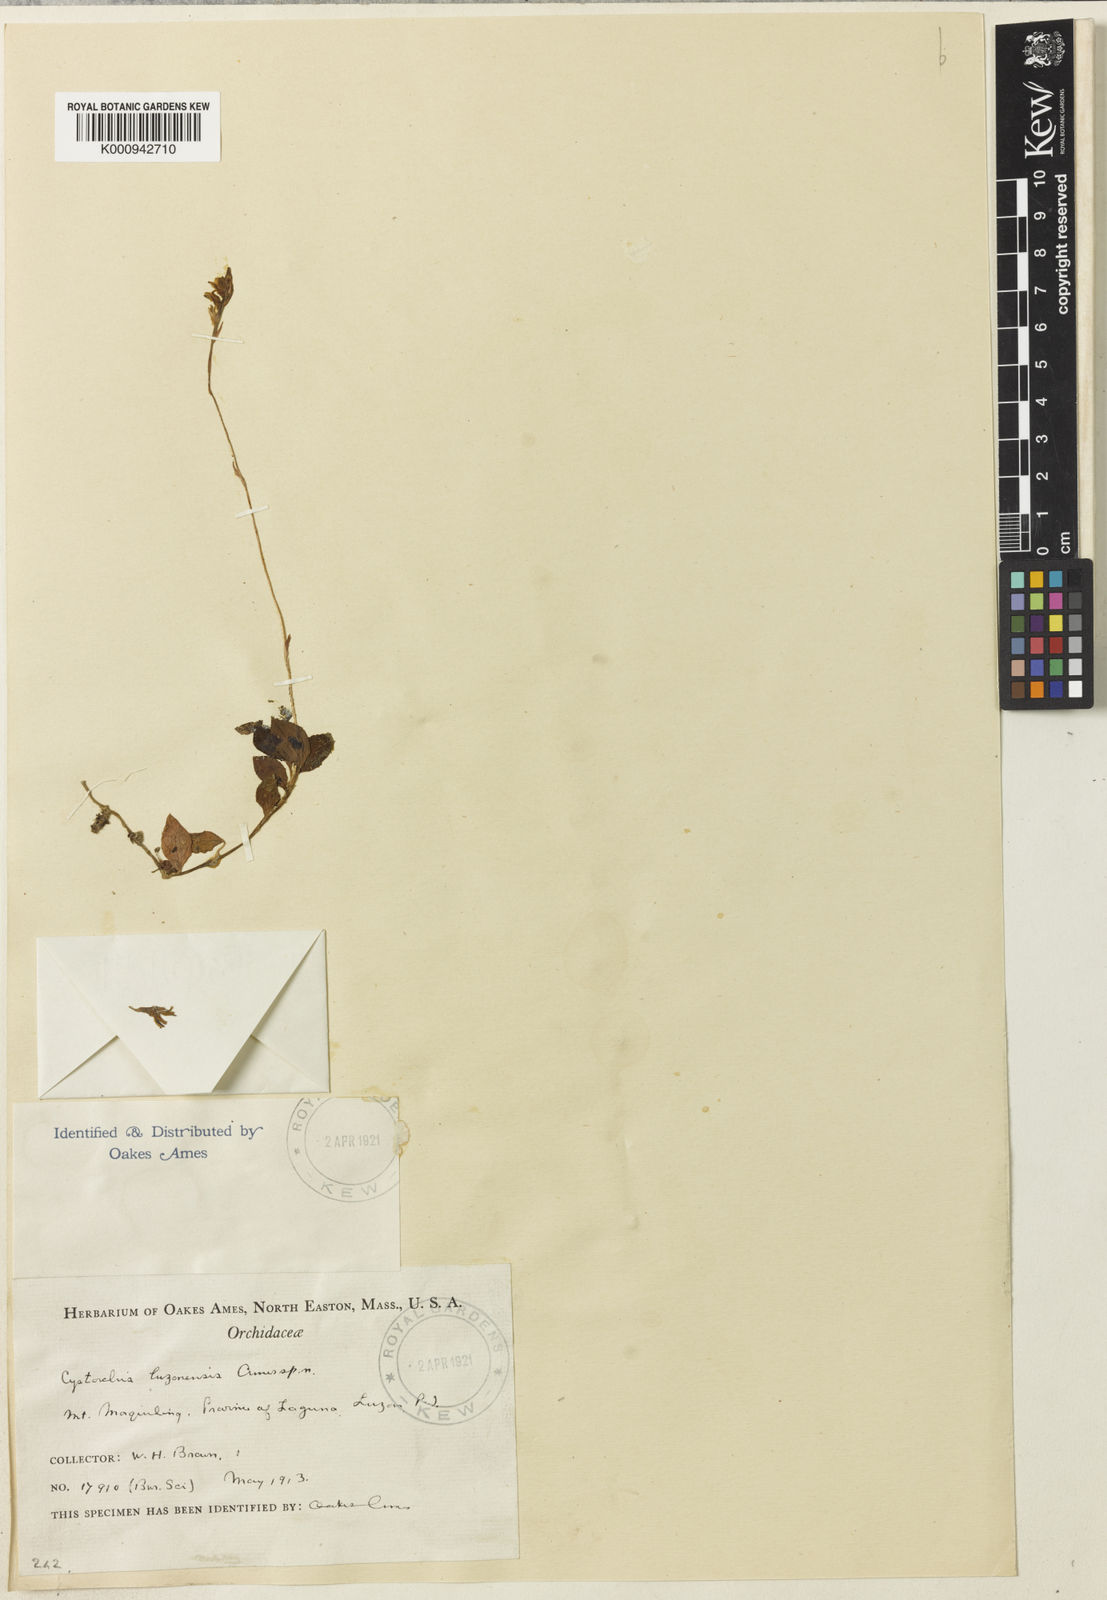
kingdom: Plantae
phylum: Tracheophyta
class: Liliopsida
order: Asparagales
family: Orchidaceae
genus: Cystorchis
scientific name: Cystorchis luzonensis
